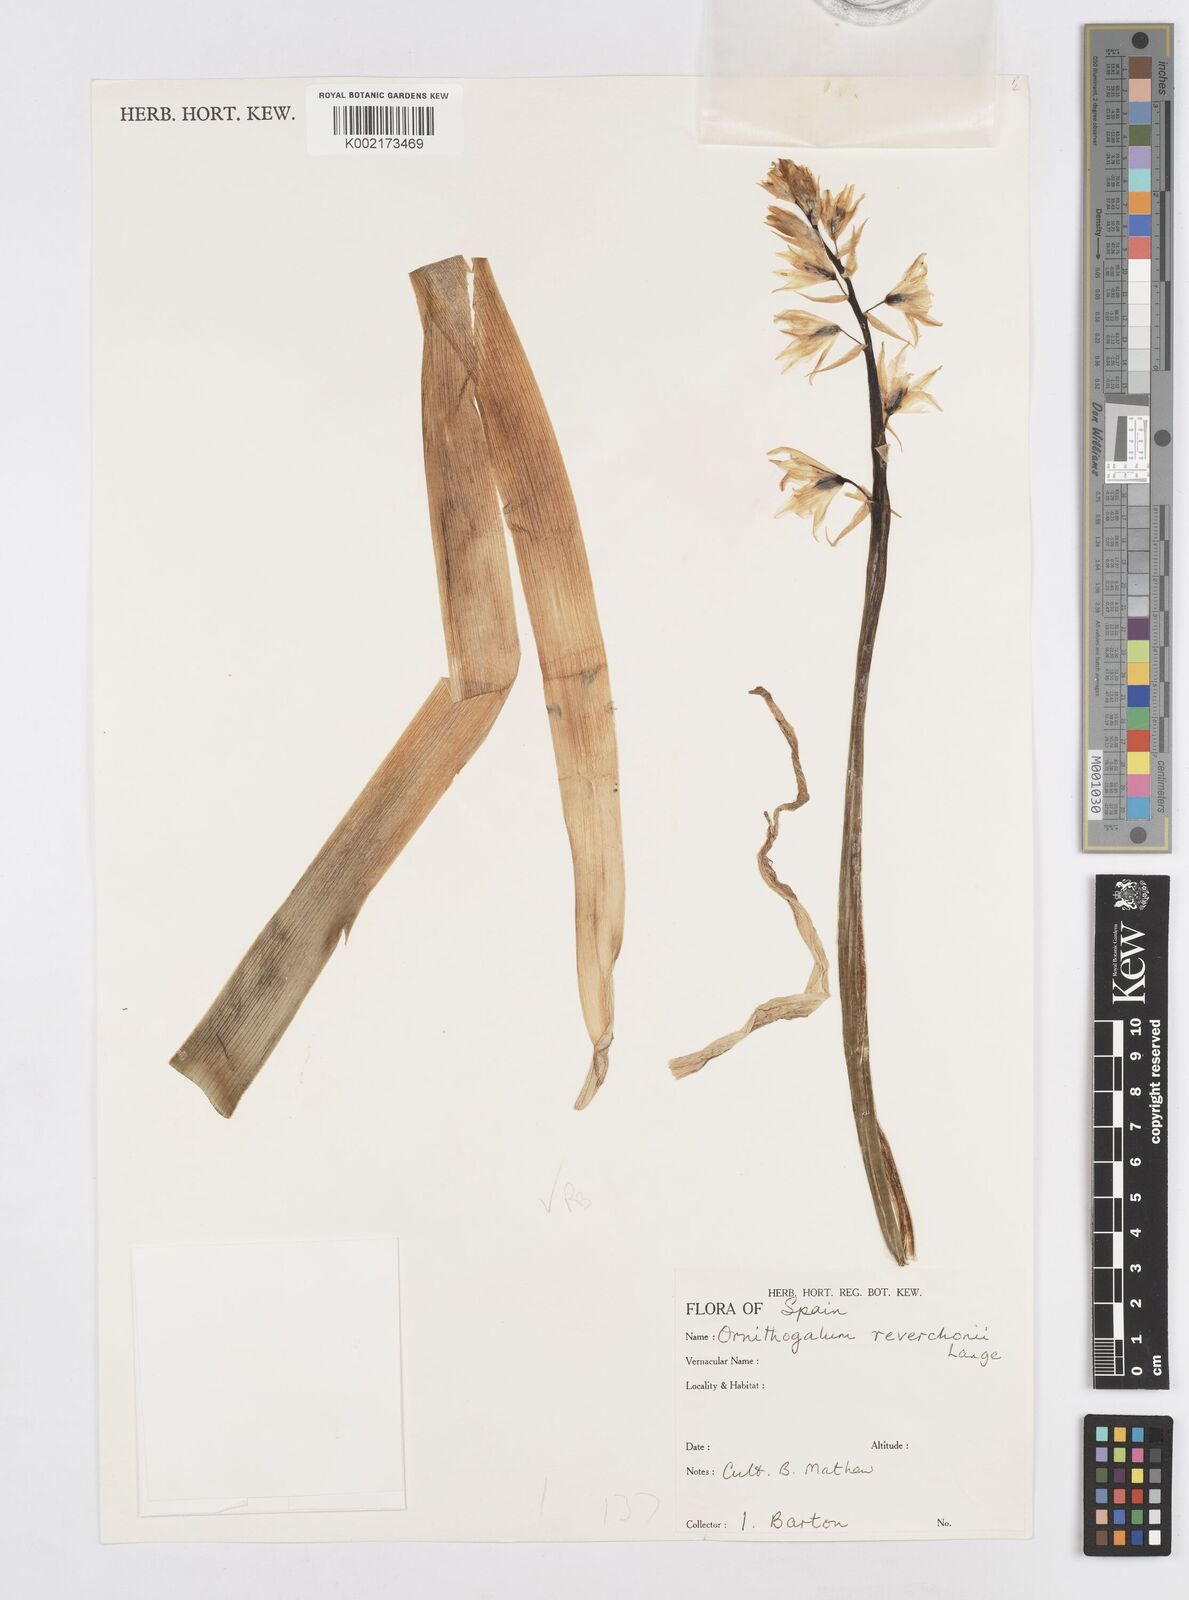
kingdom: Plantae
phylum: Tracheophyta
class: Liliopsida
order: Asparagales
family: Asparagaceae
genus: Ornithogalum
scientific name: Ornithogalum reverchonii
